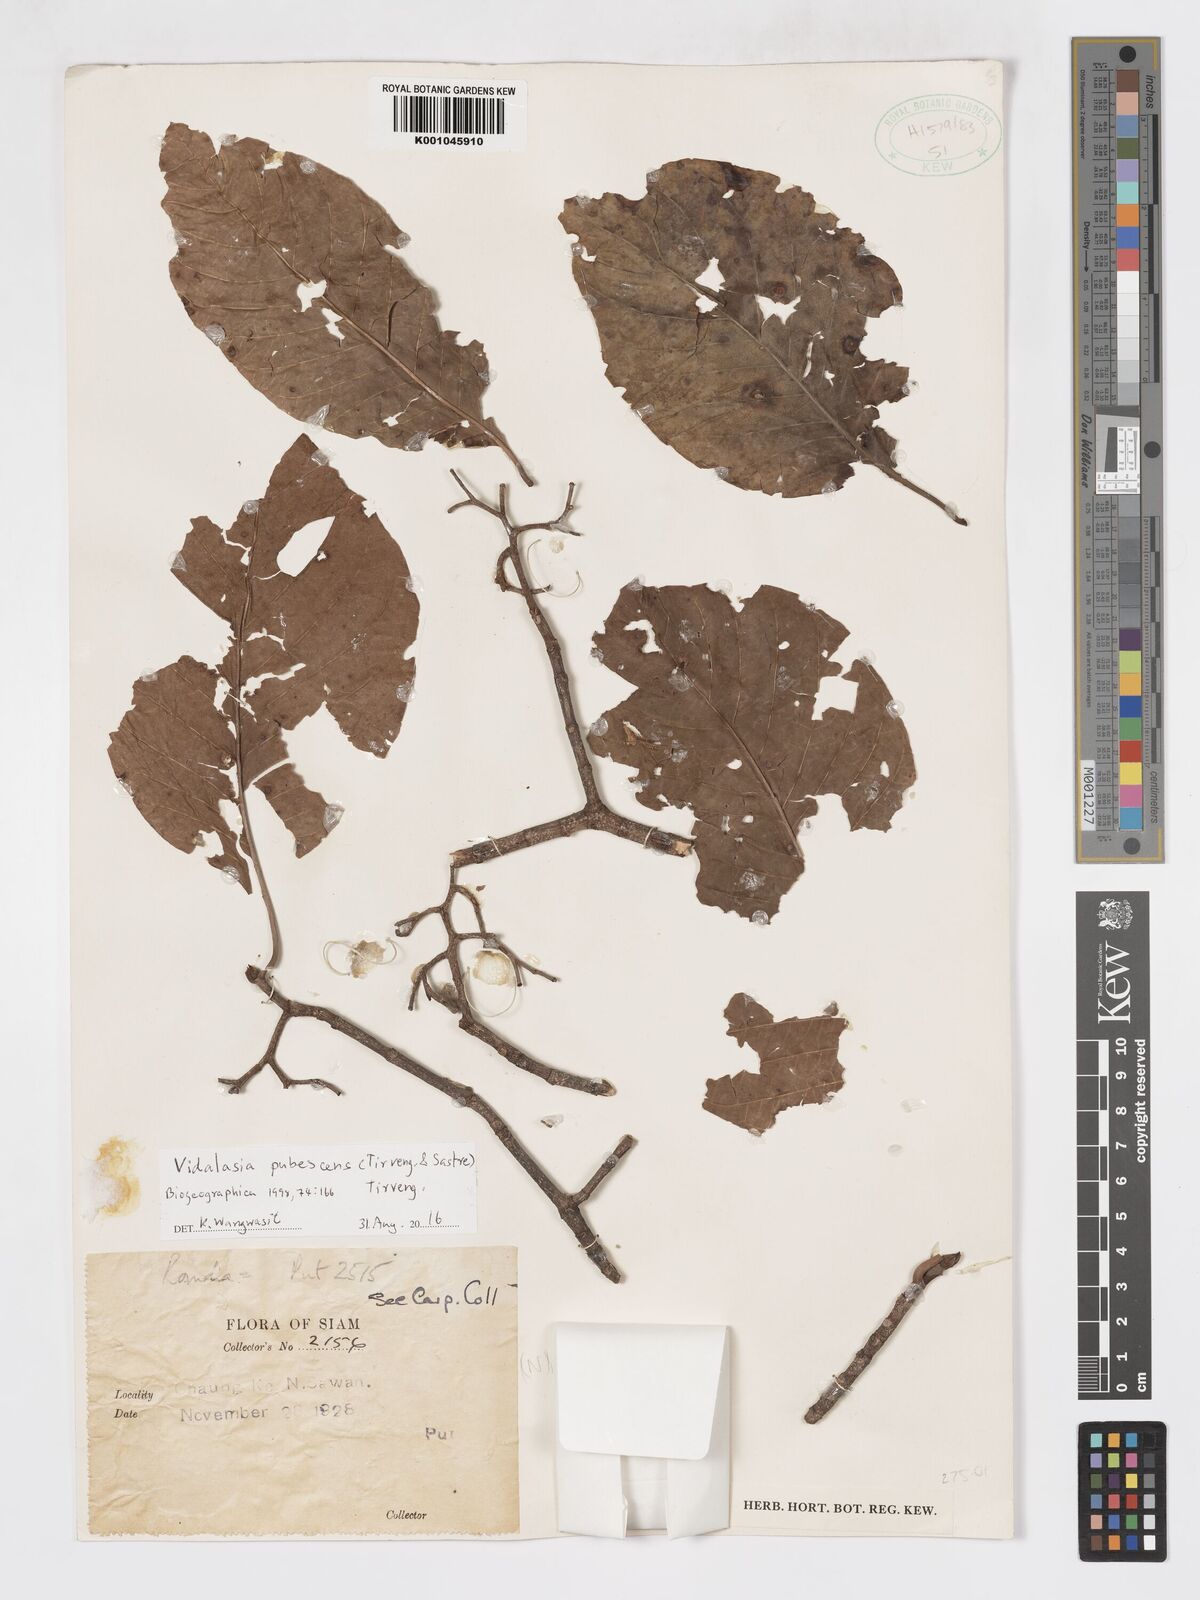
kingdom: Plantae
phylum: Tracheophyta
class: Magnoliopsida
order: Gentianales
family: Rubiaceae
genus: Vidalasia
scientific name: Vidalasia pubescens
